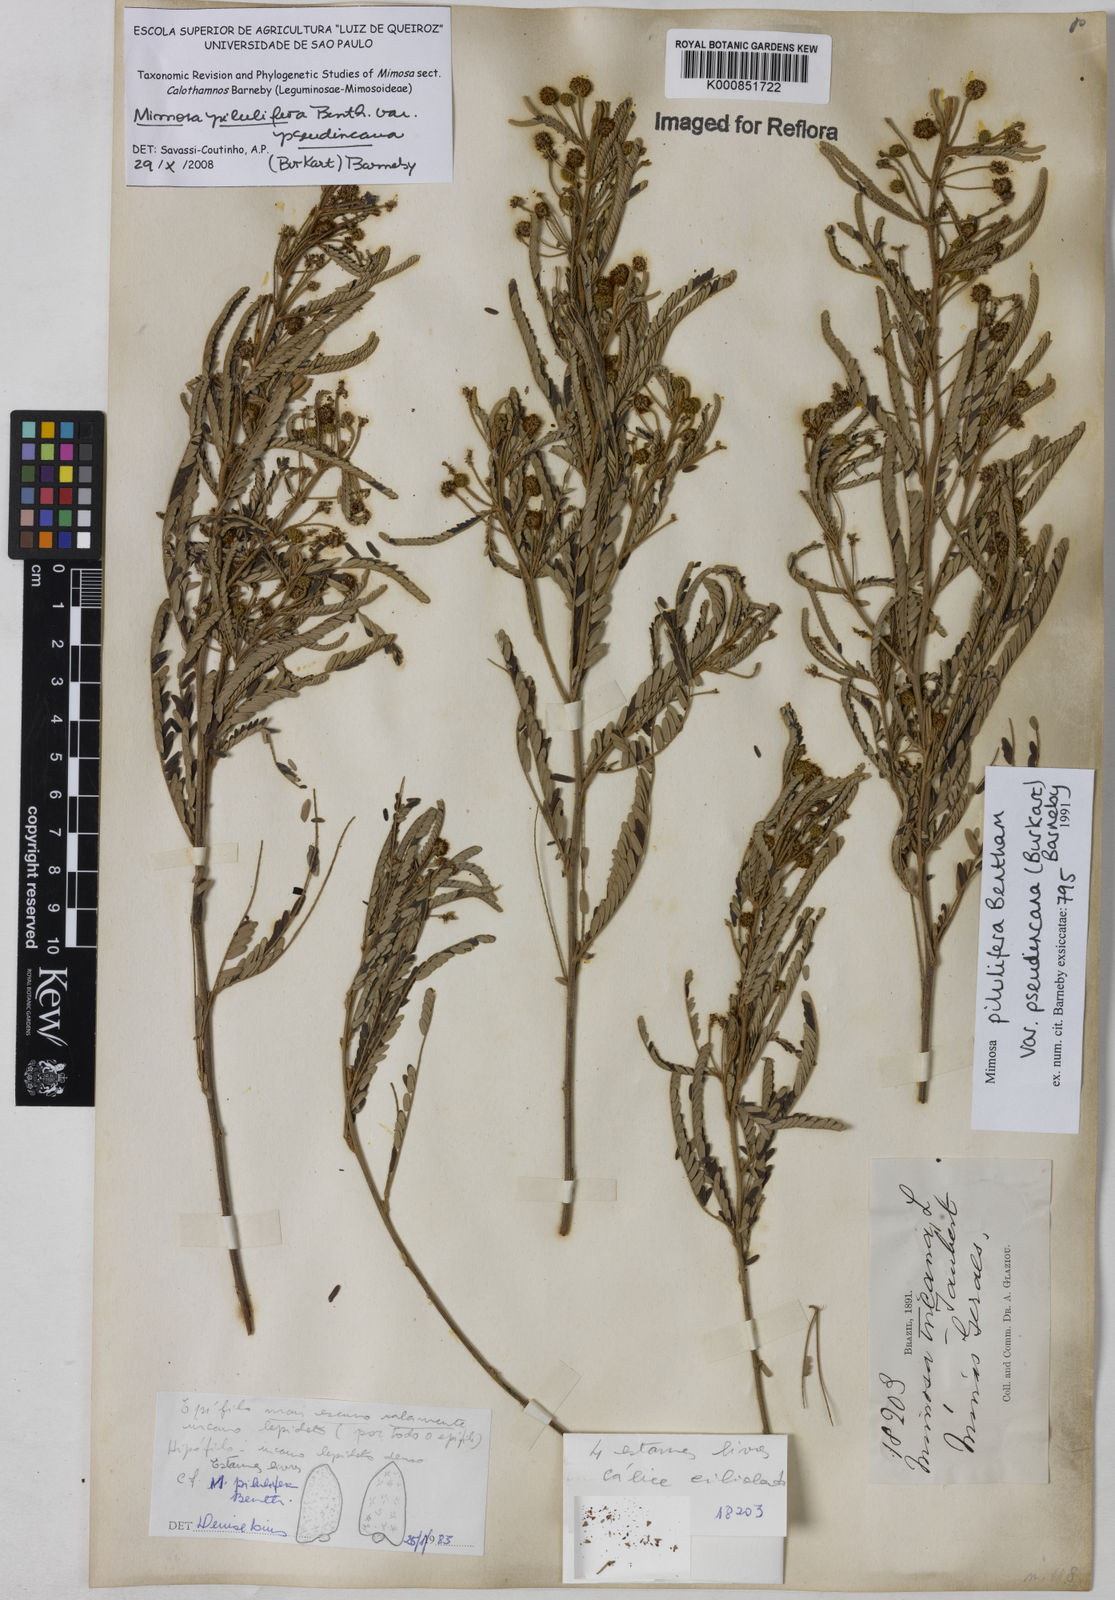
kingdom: Plantae
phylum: Tracheophyta
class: Magnoliopsida
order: Fabales
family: Fabaceae
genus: Mimosa
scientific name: Mimosa pilulifera
